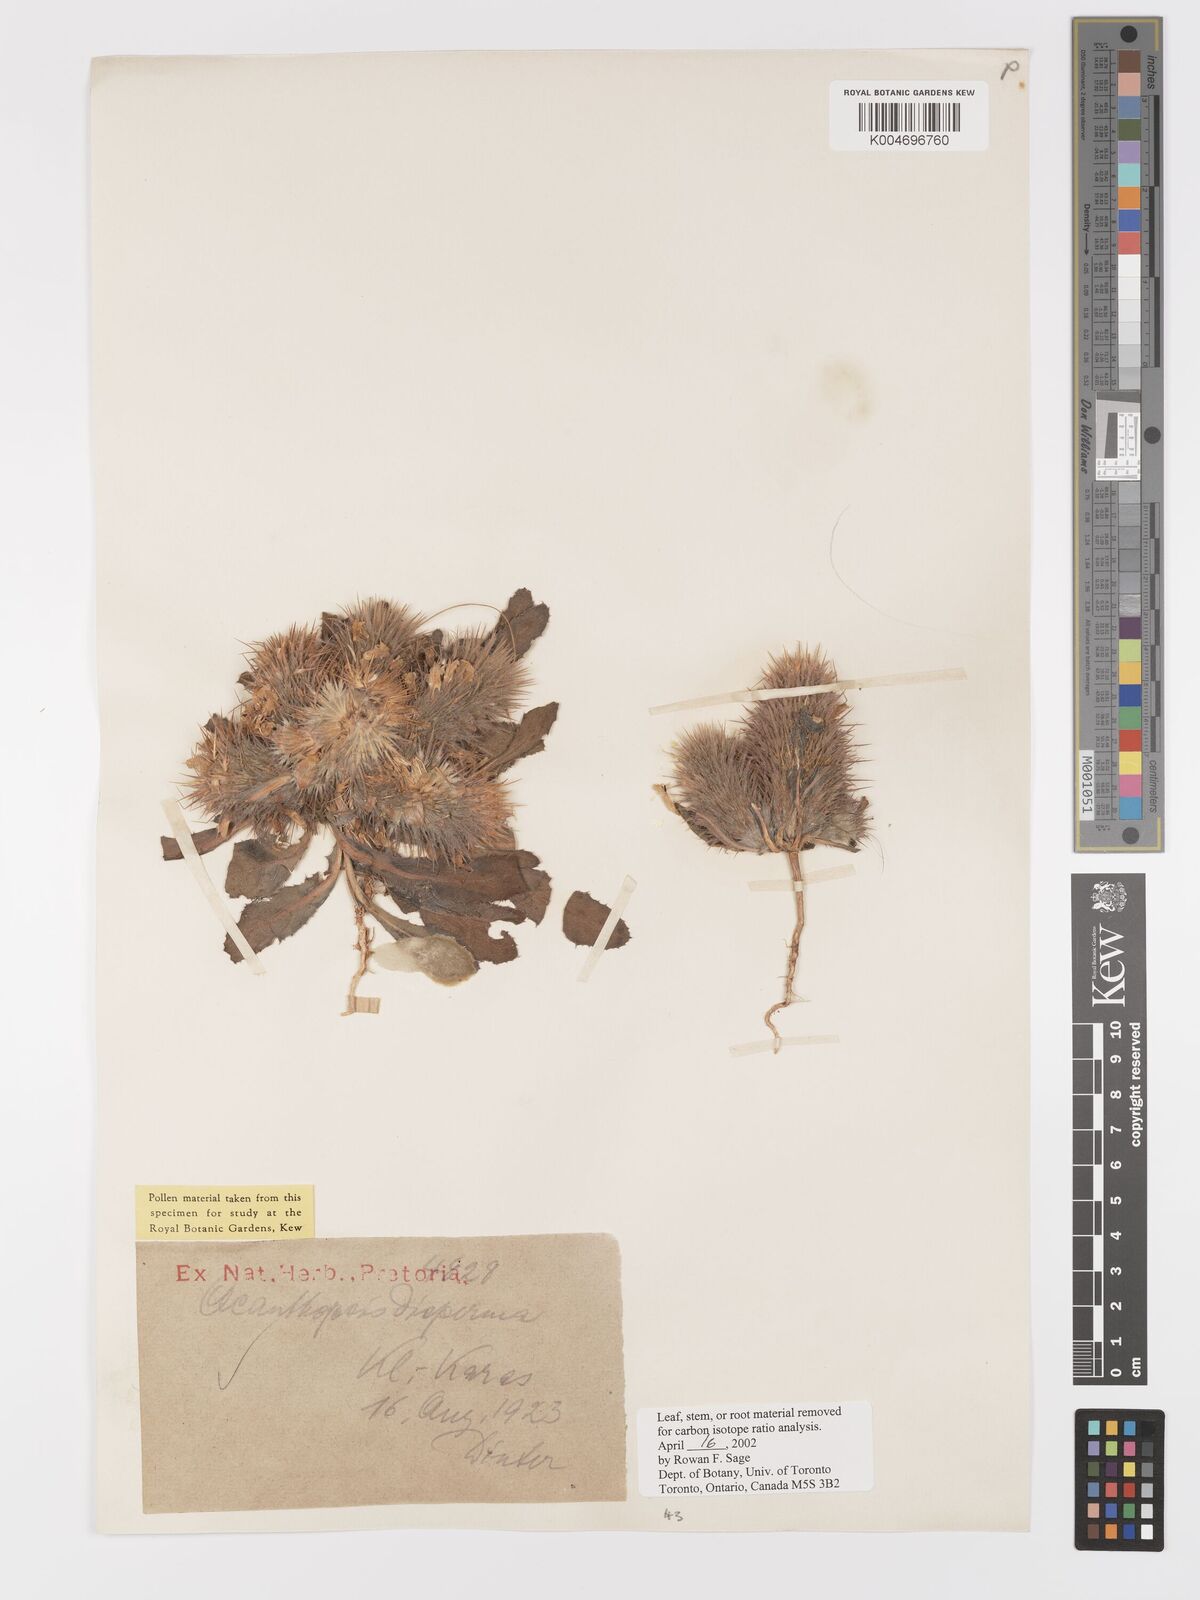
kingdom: Plantae
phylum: Tracheophyta
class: Magnoliopsida
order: Lamiales
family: Acanthaceae
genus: Acanthopsis
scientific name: Acanthopsis disperma
